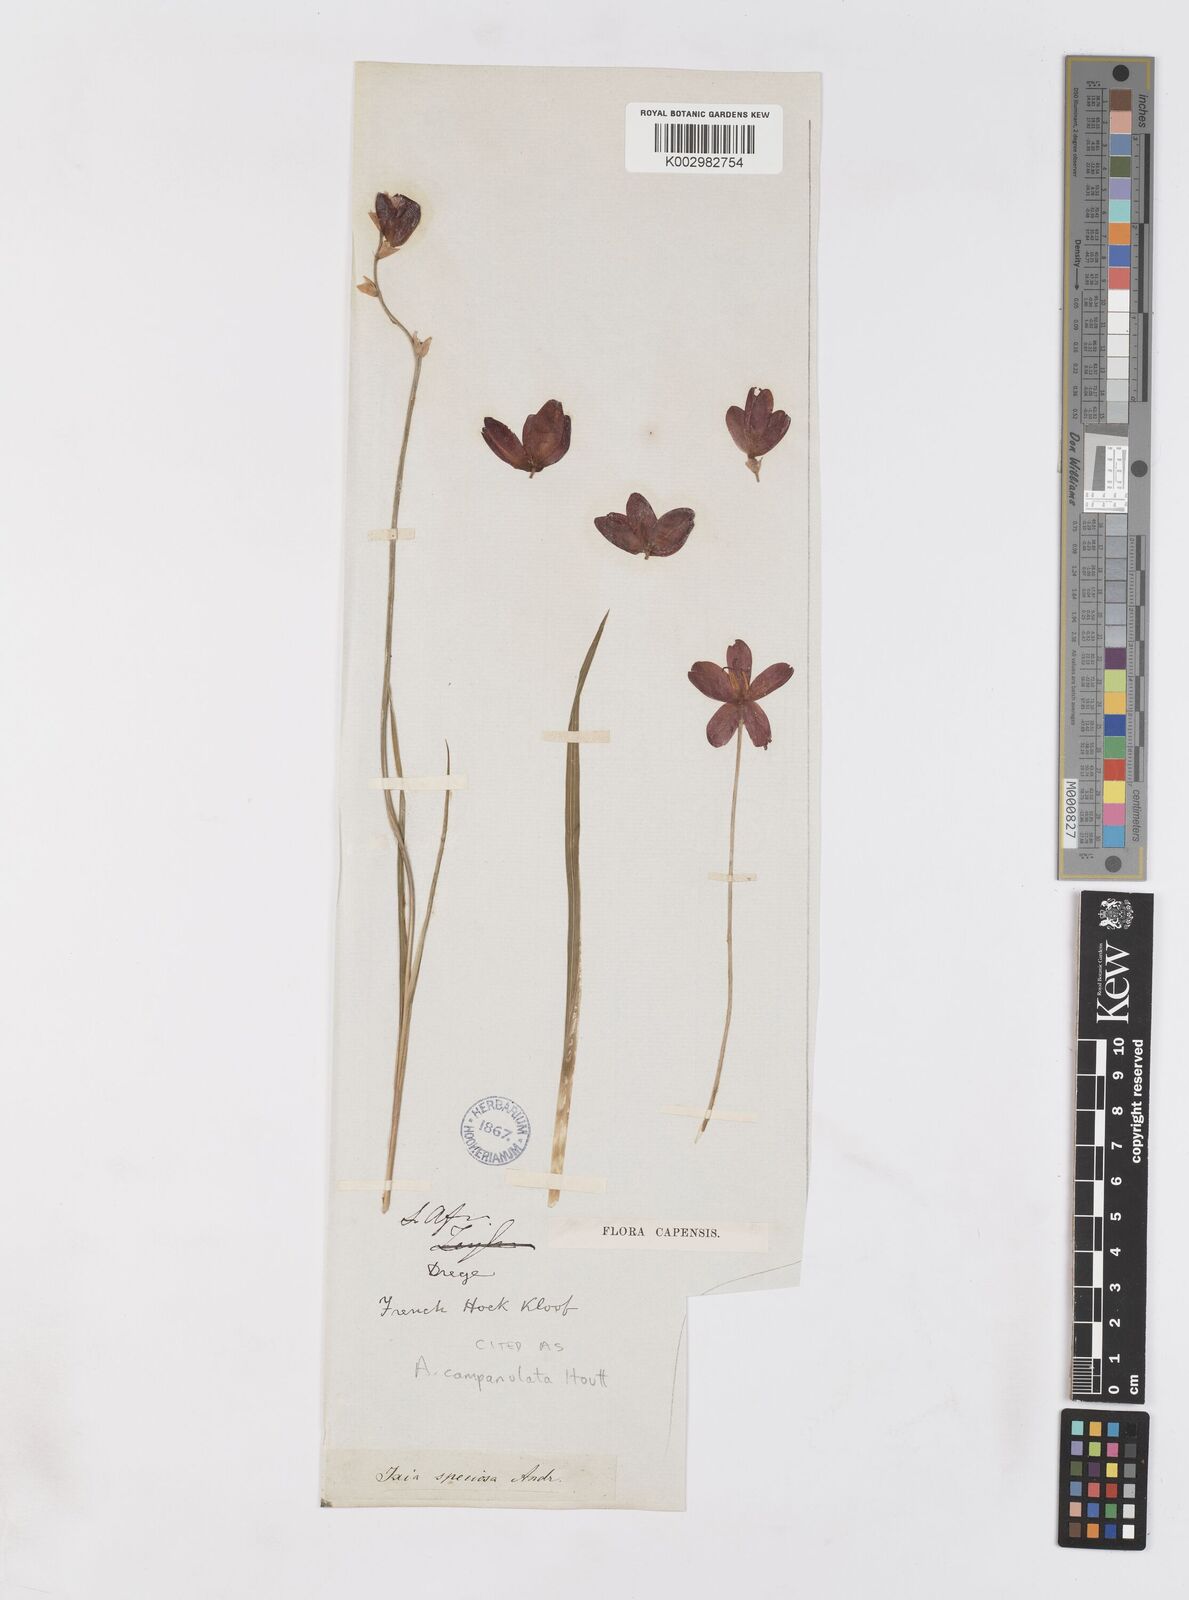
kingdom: Plantae
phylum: Tracheophyta
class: Liliopsida
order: Asparagales
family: Iridaceae
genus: Ixia
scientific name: Ixia campanulata
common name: Red corn-lily
